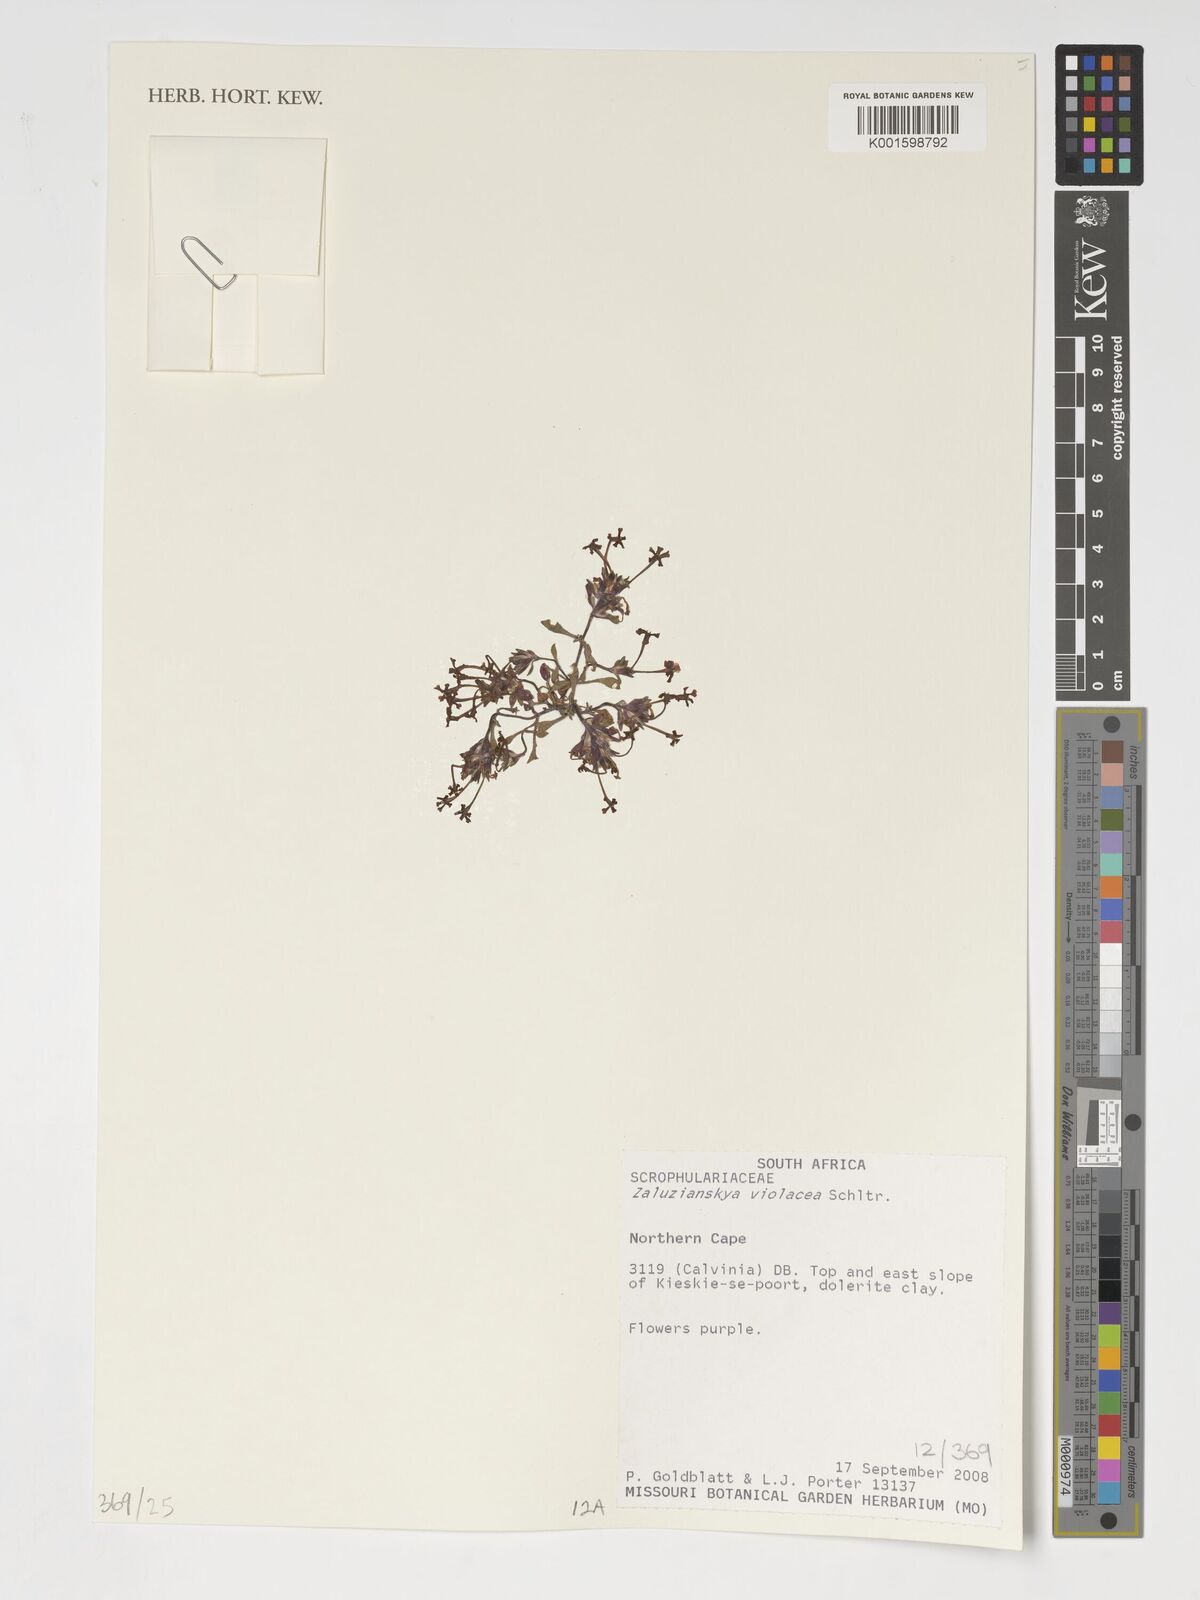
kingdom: Plantae
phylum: Tracheophyta
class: Magnoliopsida
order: Lamiales
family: Scrophulariaceae
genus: Zaluzianskya
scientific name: Zaluzianskya violacea
